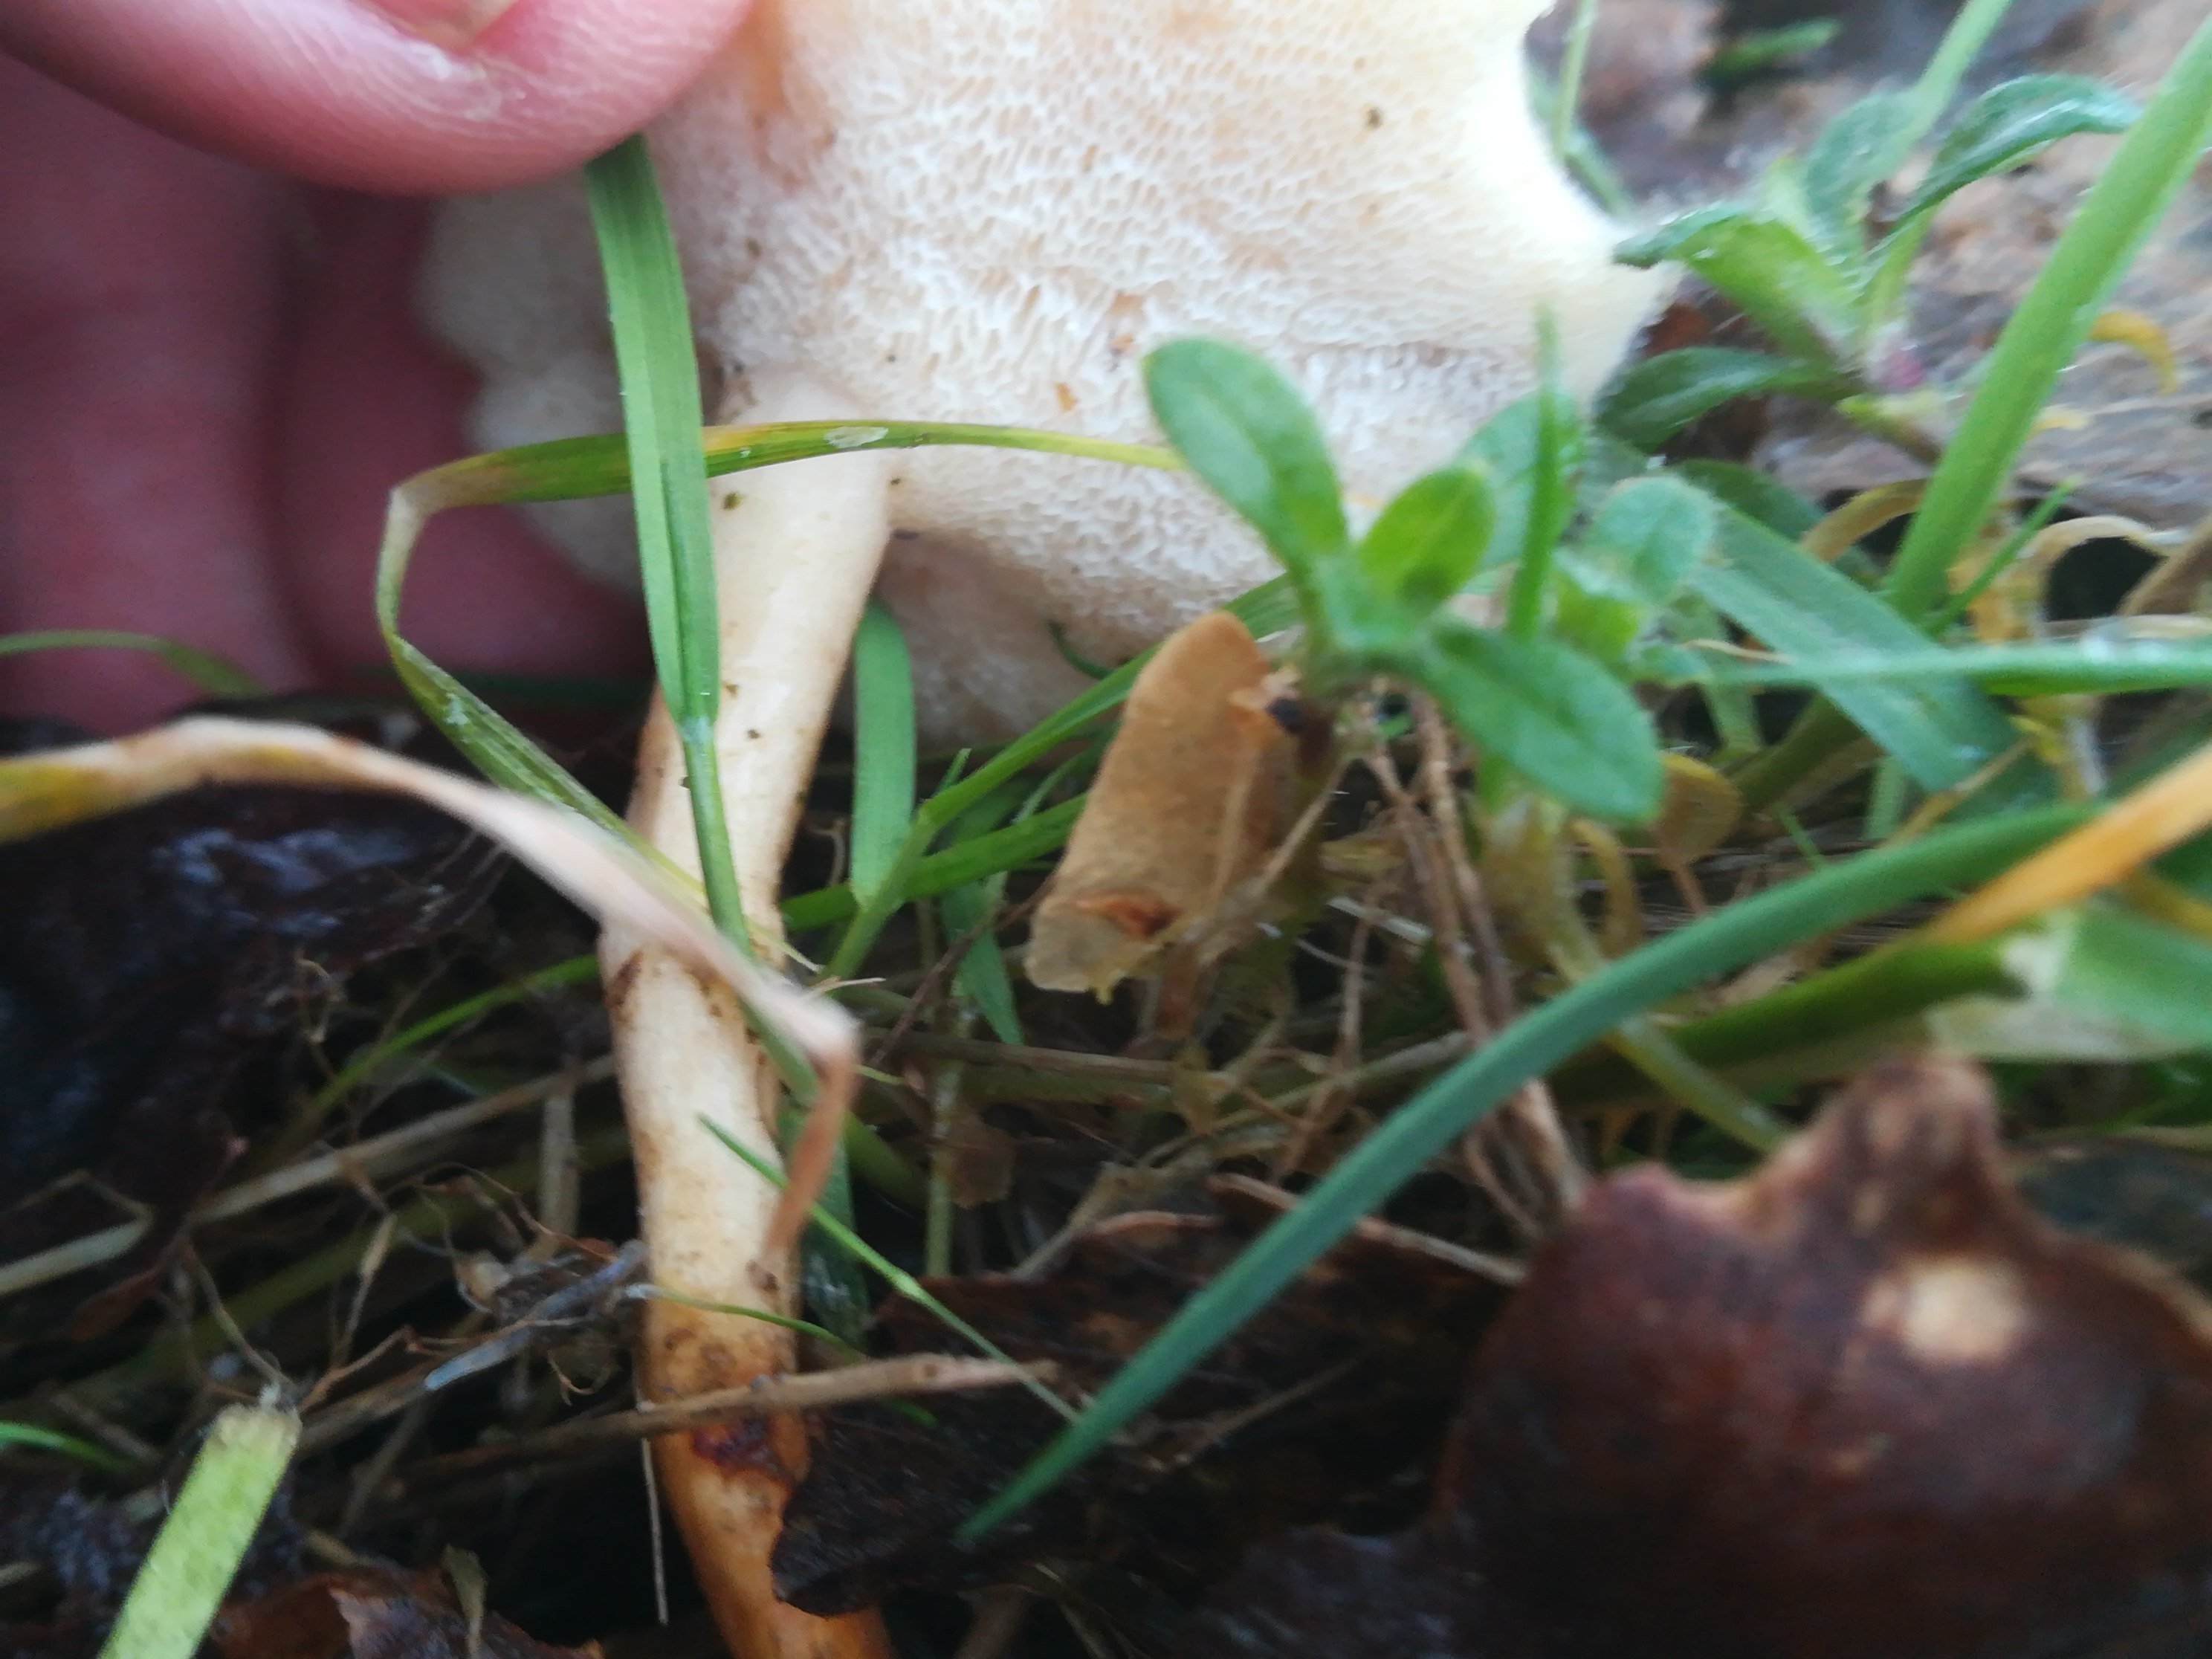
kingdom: Fungi
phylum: Basidiomycota
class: Agaricomycetes
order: Polyporales
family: Polyporaceae
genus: Lentinus
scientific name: Lentinus brumalis
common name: vinter-stilkporesvamp
